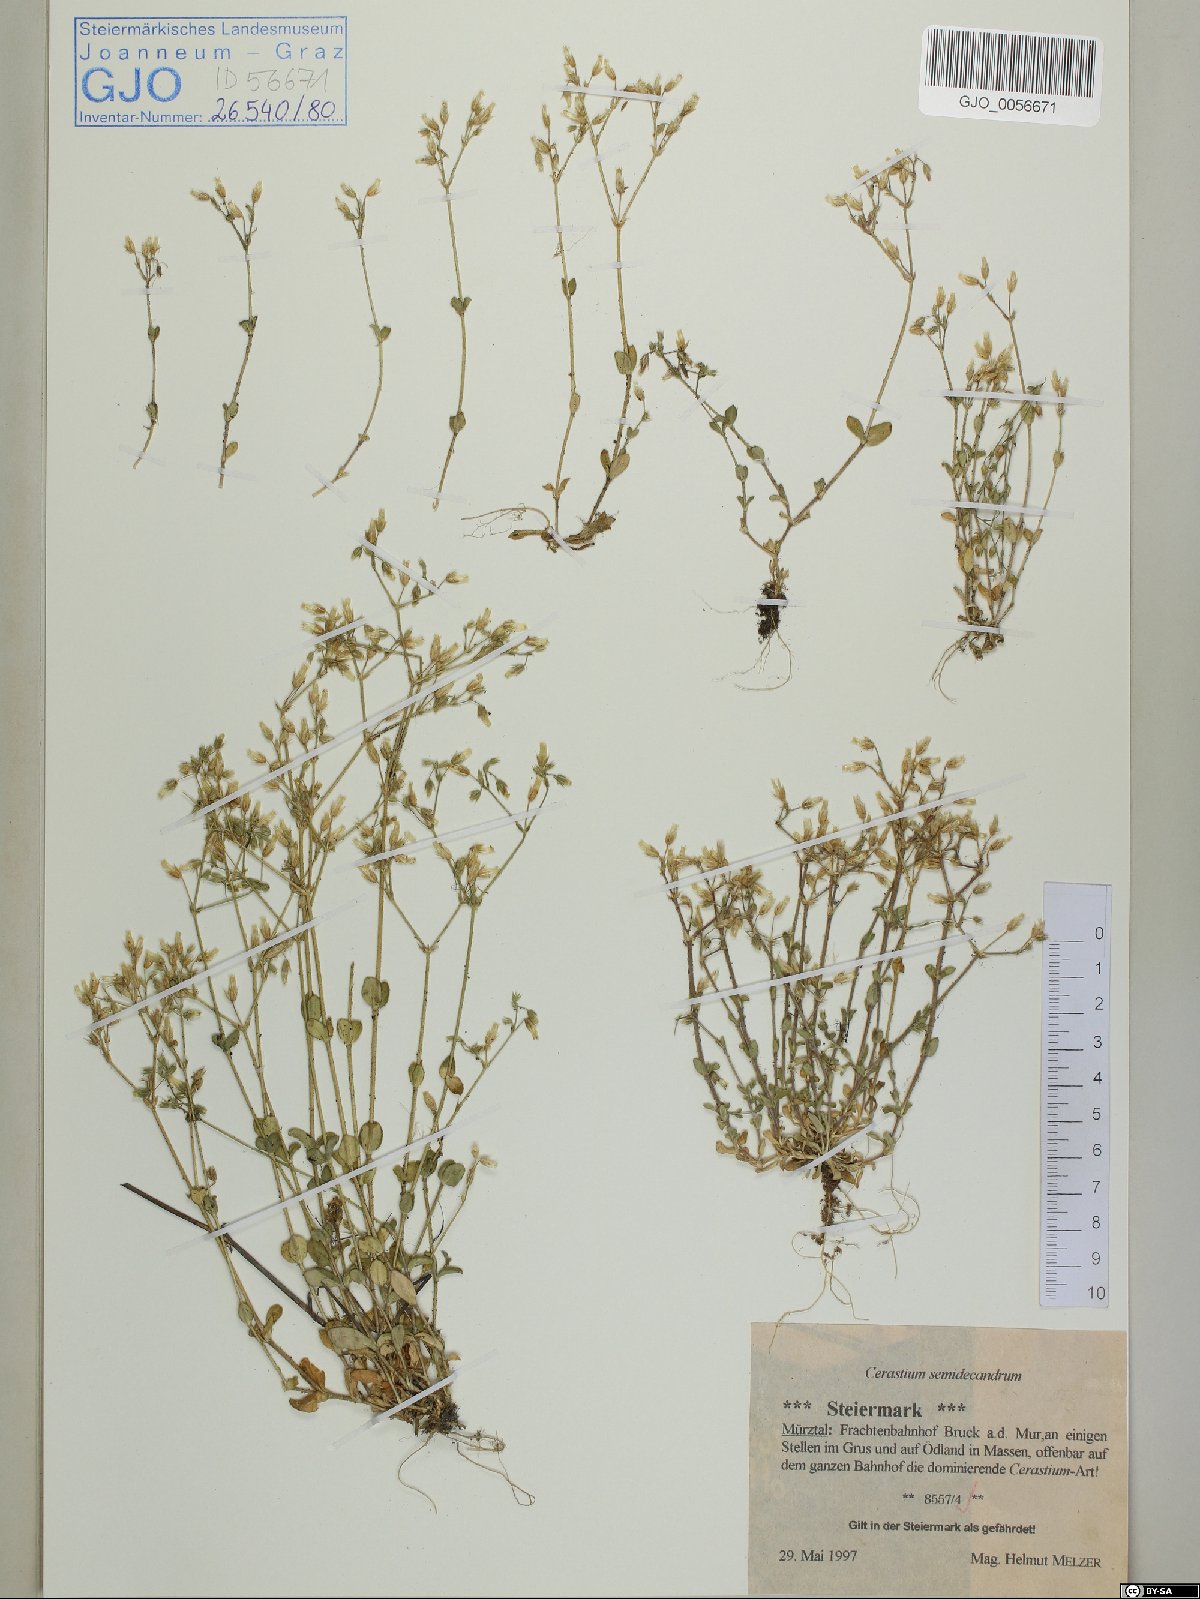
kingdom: Plantae
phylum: Tracheophyta
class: Magnoliopsida
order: Caryophyllales
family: Caryophyllaceae
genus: Cerastium
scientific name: Cerastium semidecandrum
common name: Little mouse-ear
